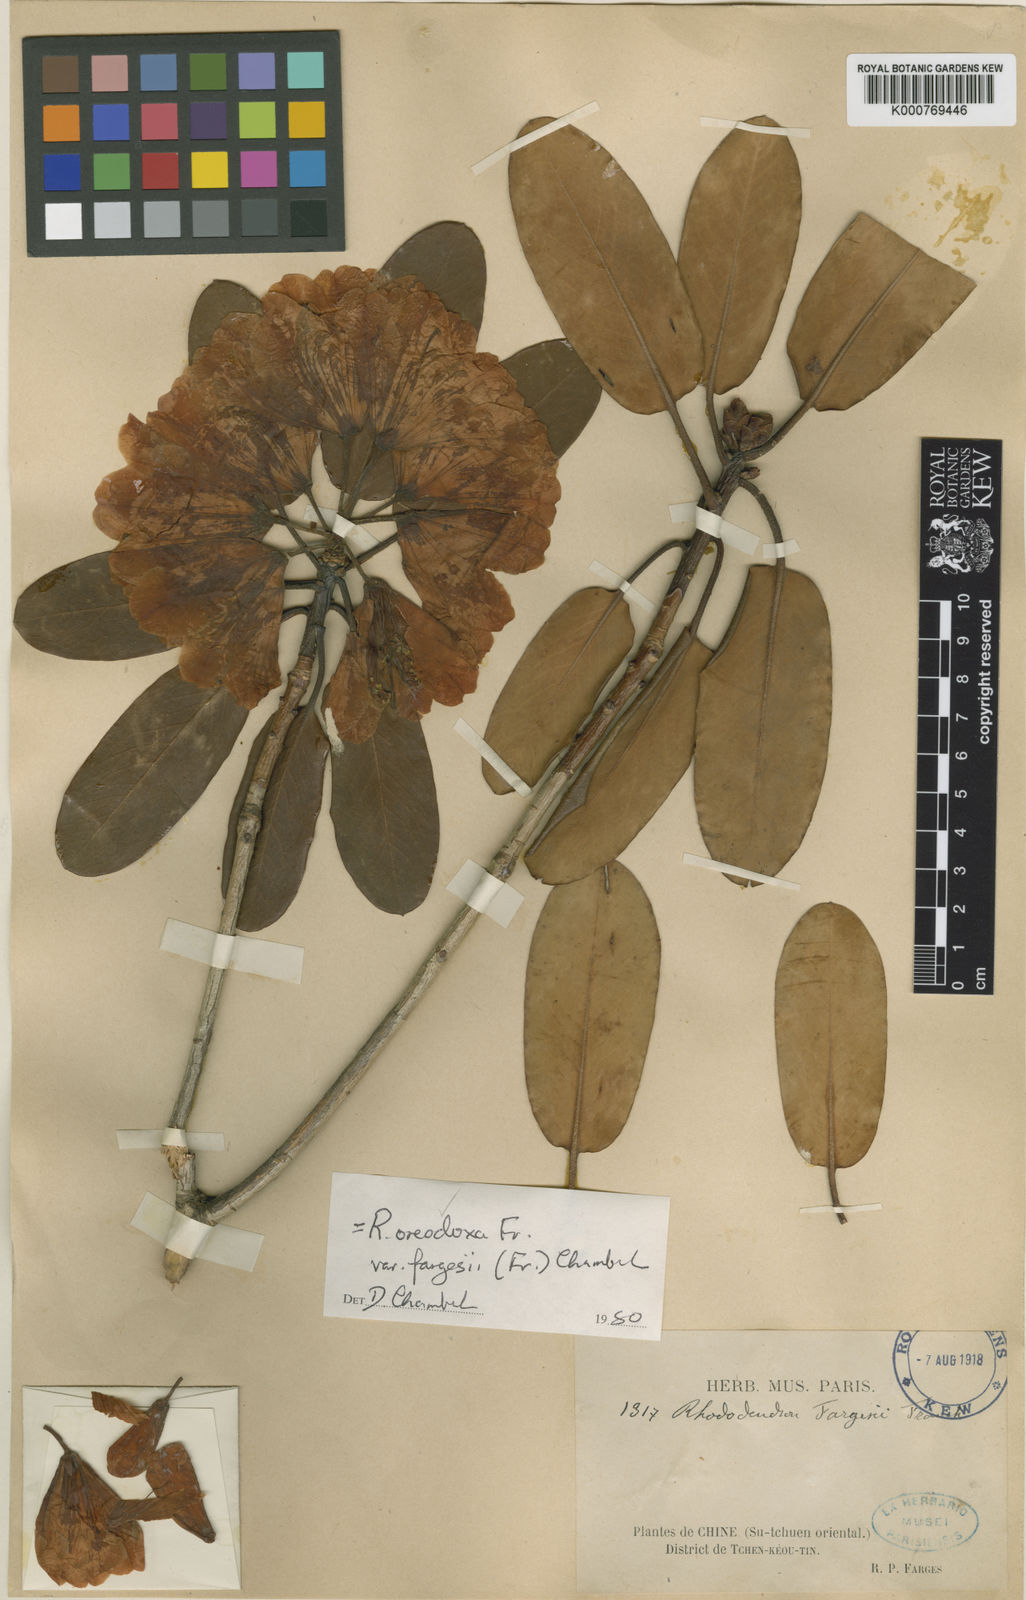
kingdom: Plantae
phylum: Tracheophyta
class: Magnoliopsida
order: Ericales
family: Ericaceae
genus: Rhododendron
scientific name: Rhododendron oreodoxa
